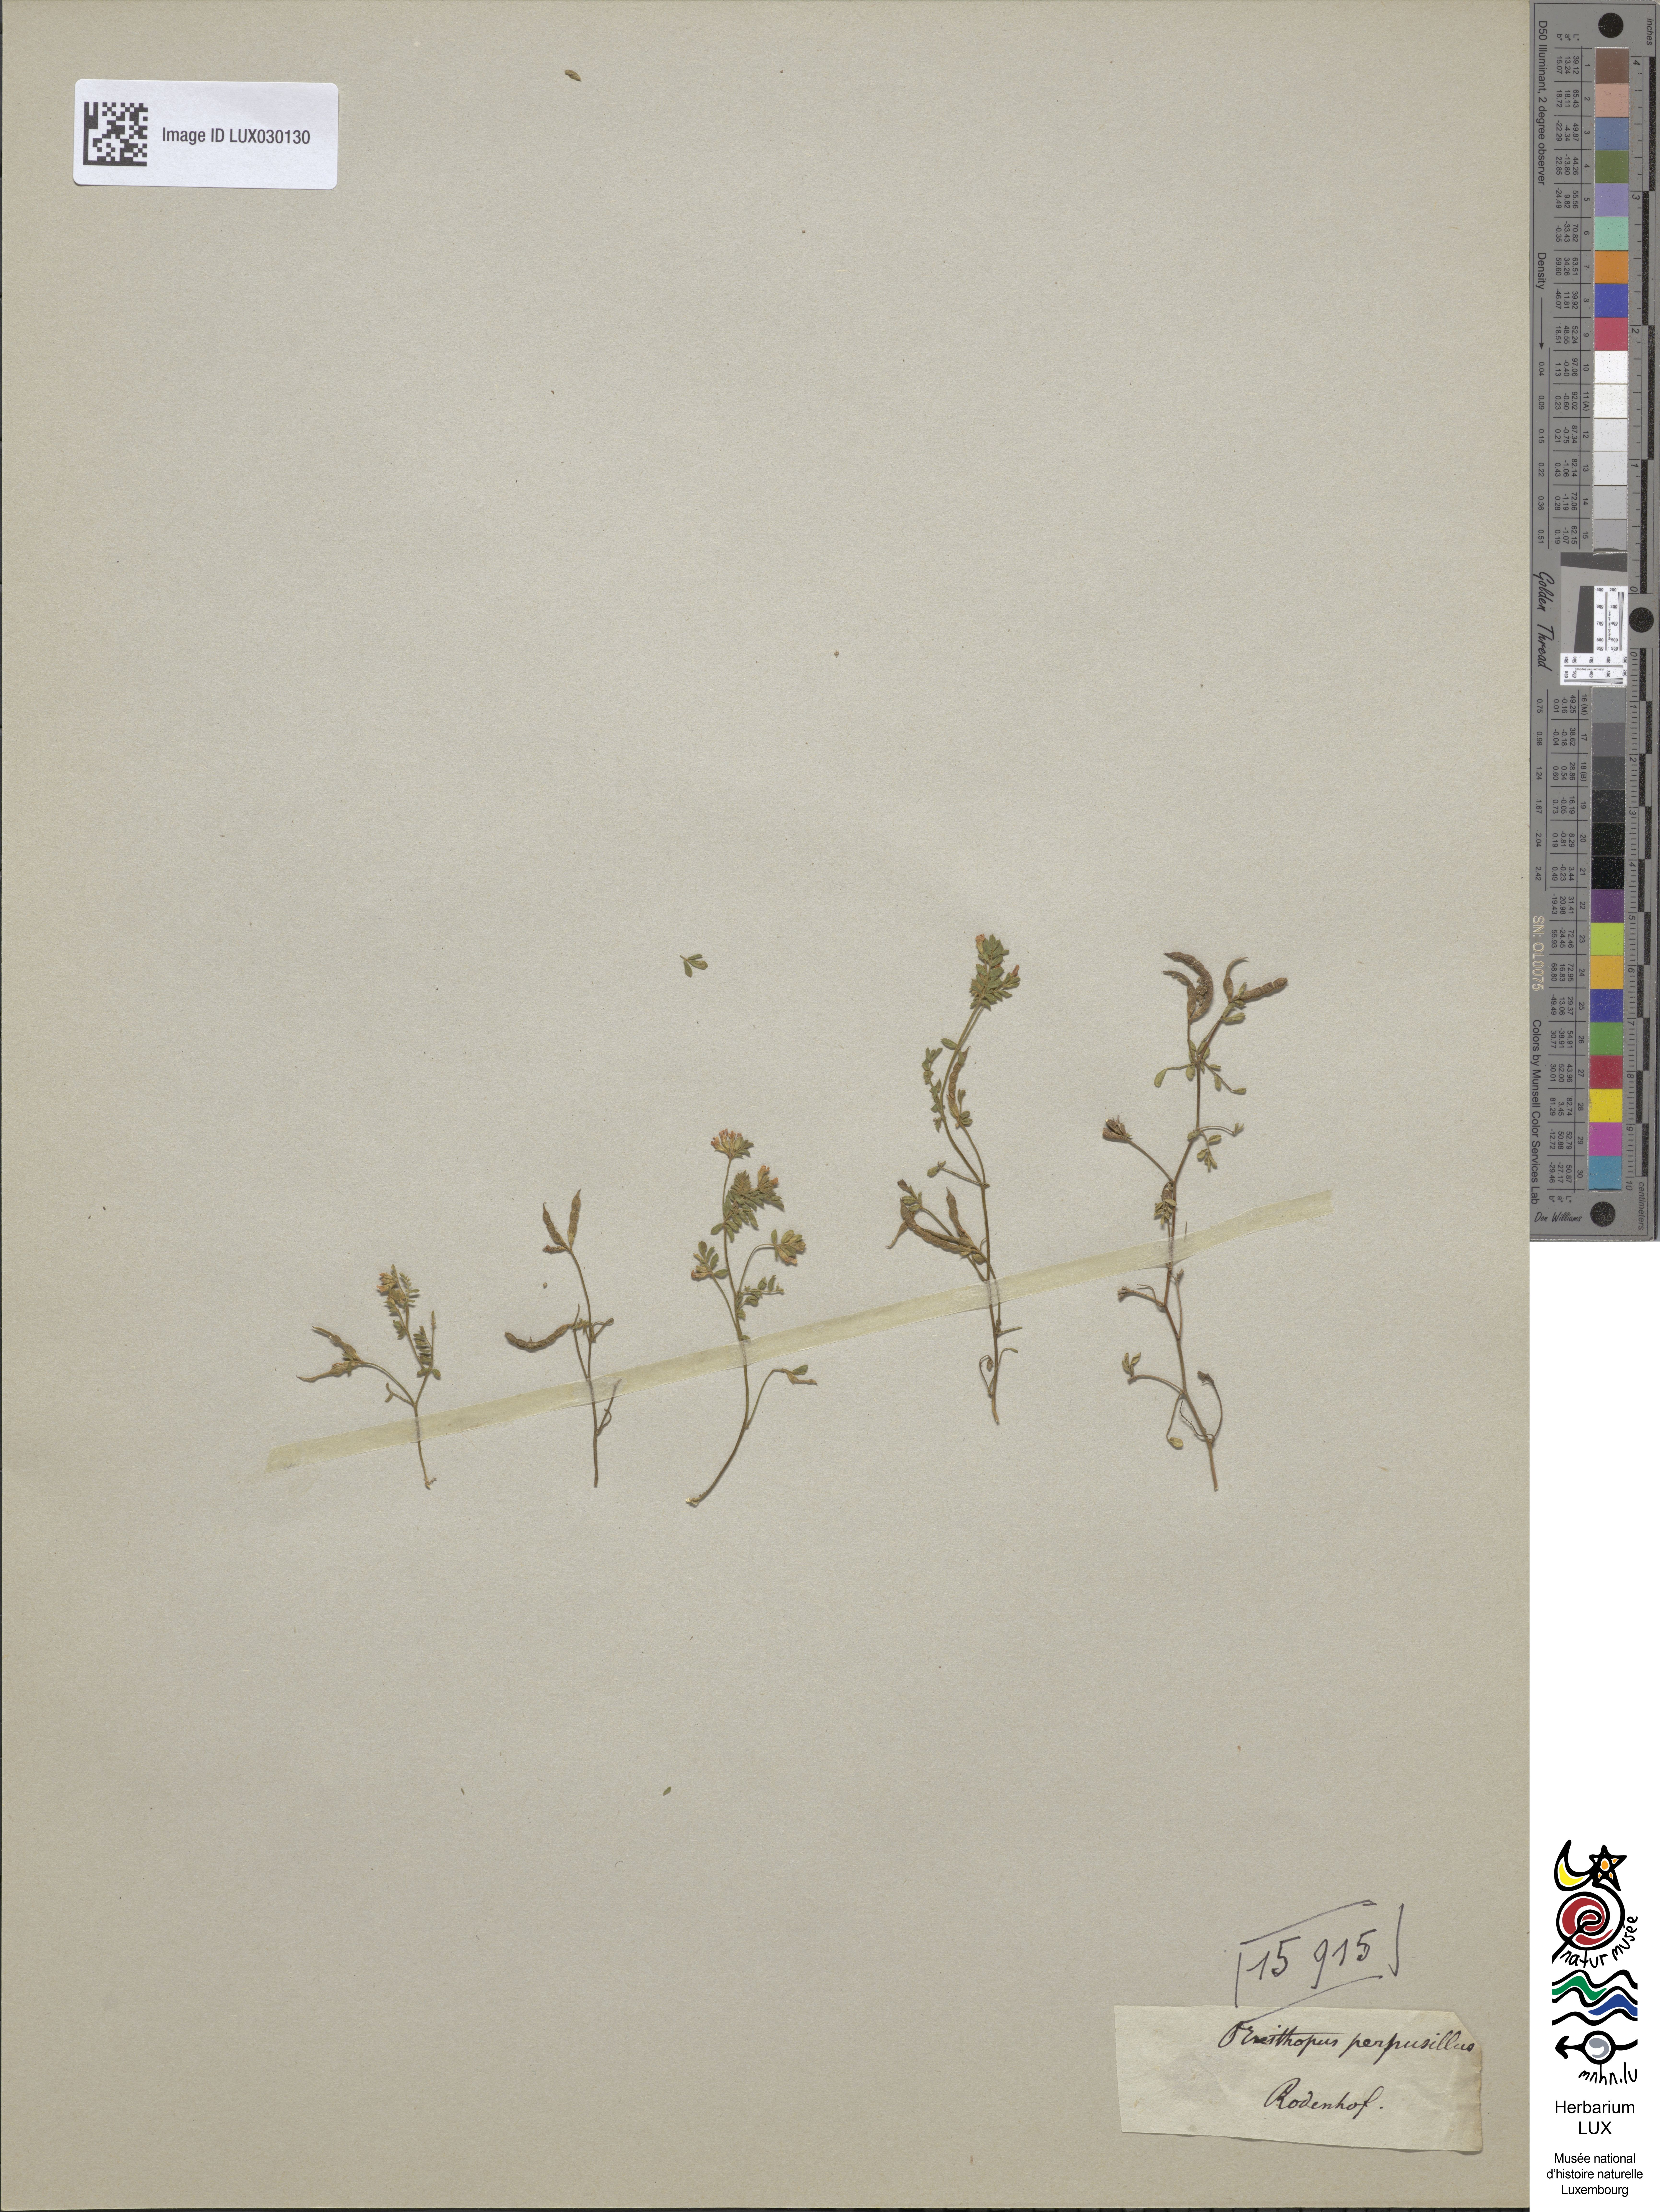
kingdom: Plantae
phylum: Tracheophyta
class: Magnoliopsida
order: Fabales
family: Fabaceae
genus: Ornithopus
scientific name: Ornithopus perpusillus
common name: Bird's-foot
